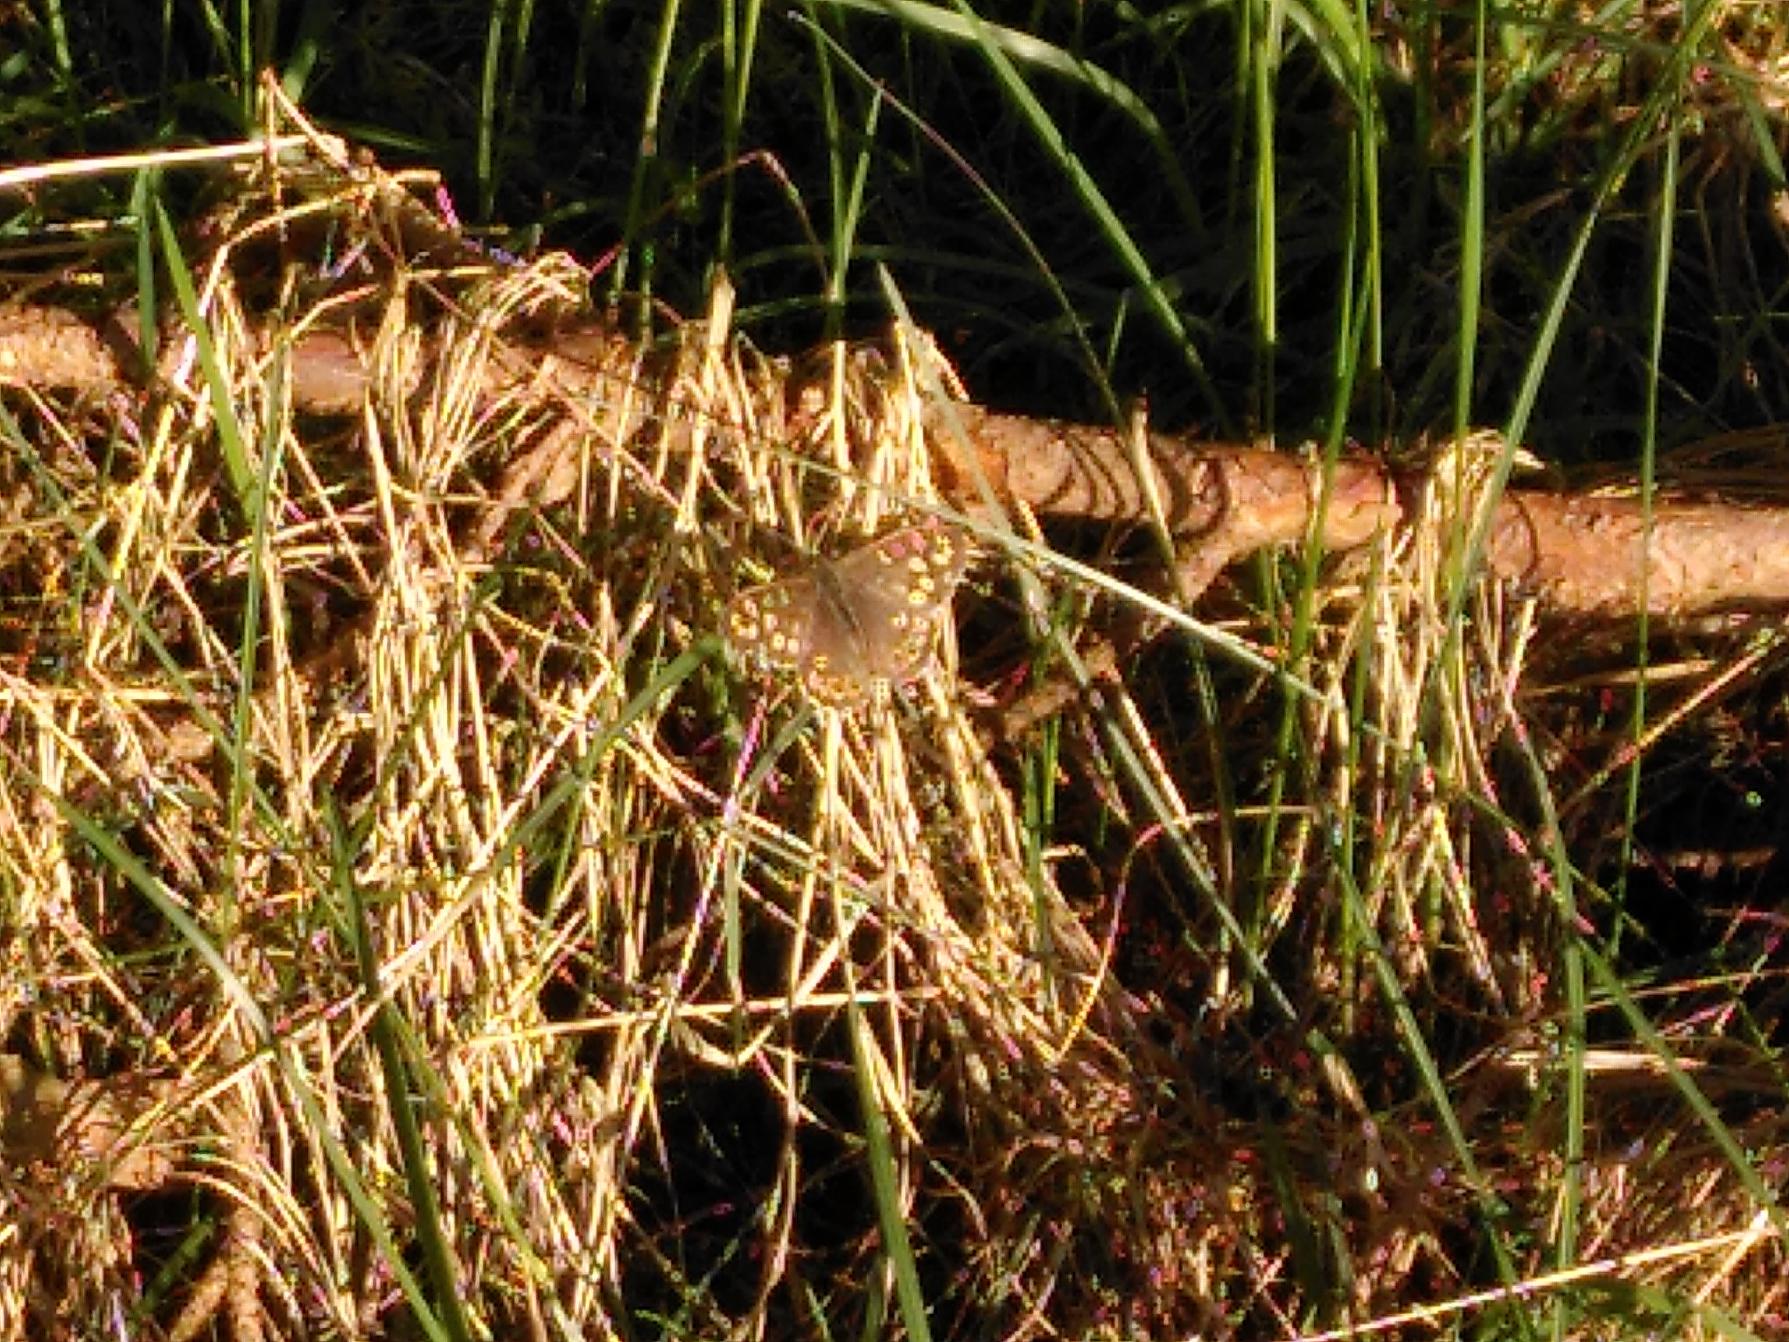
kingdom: Animalia
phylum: Arthropoda
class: Insecta
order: Lepidoptera
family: Nymphalidae
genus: Pararge
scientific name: Pararge aegeria
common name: Skovrandøje
